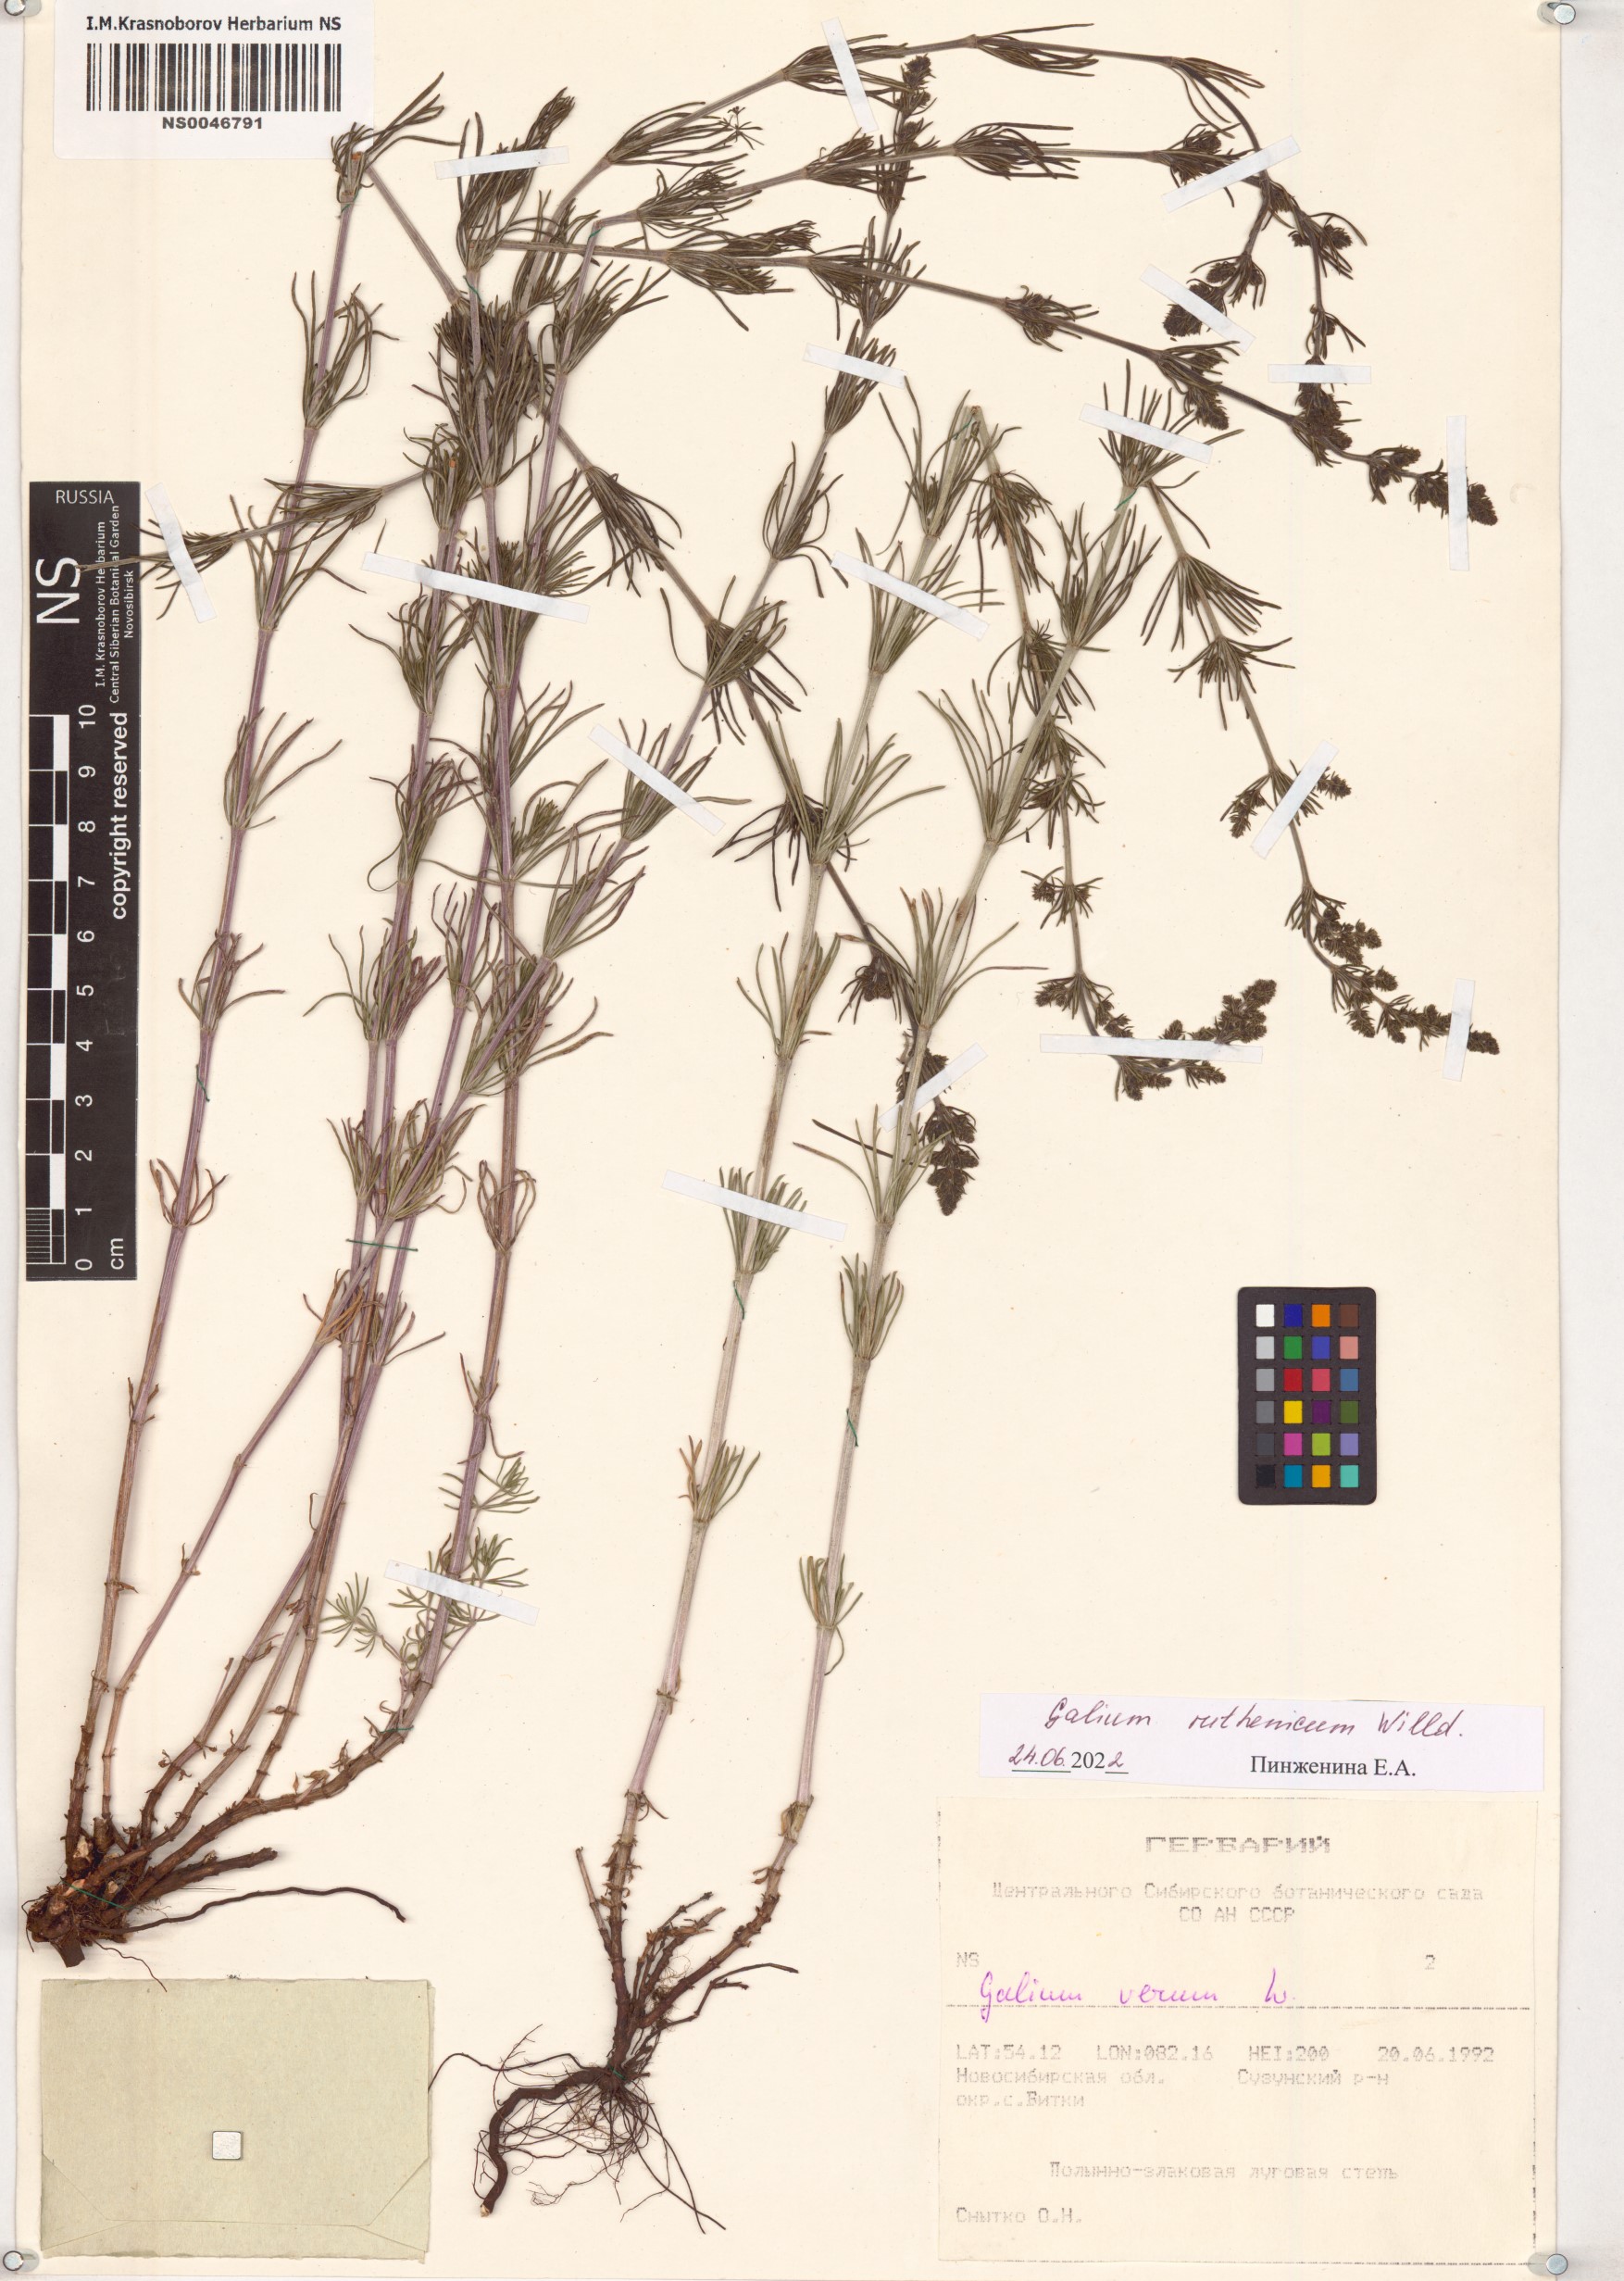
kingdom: Plantae
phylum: Tracheophyta
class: Magnoliopsida
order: Gentianales
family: Rubiaceae
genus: Galium
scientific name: Galium verum
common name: Lady's bedstraw
